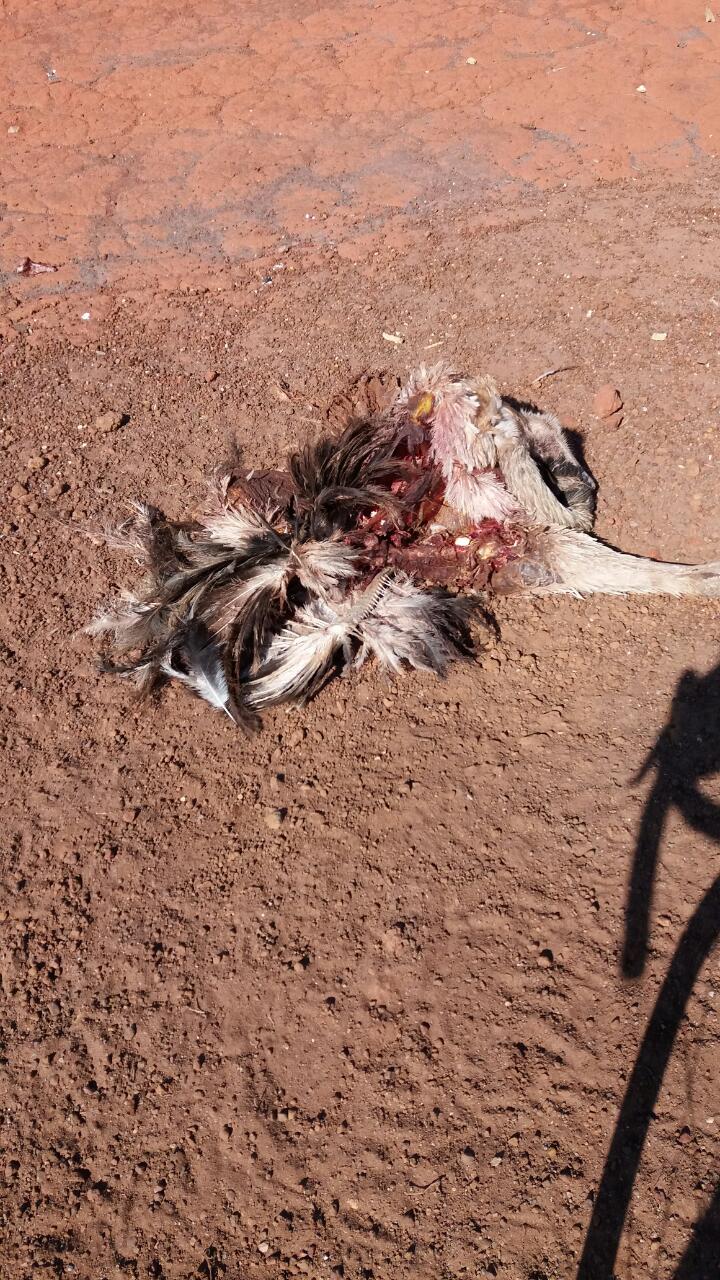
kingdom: Animalia
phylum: Chordata
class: Aves
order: Rheiformes
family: Rheidae
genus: Rhea
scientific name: Rhea americana
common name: Greater rhea
